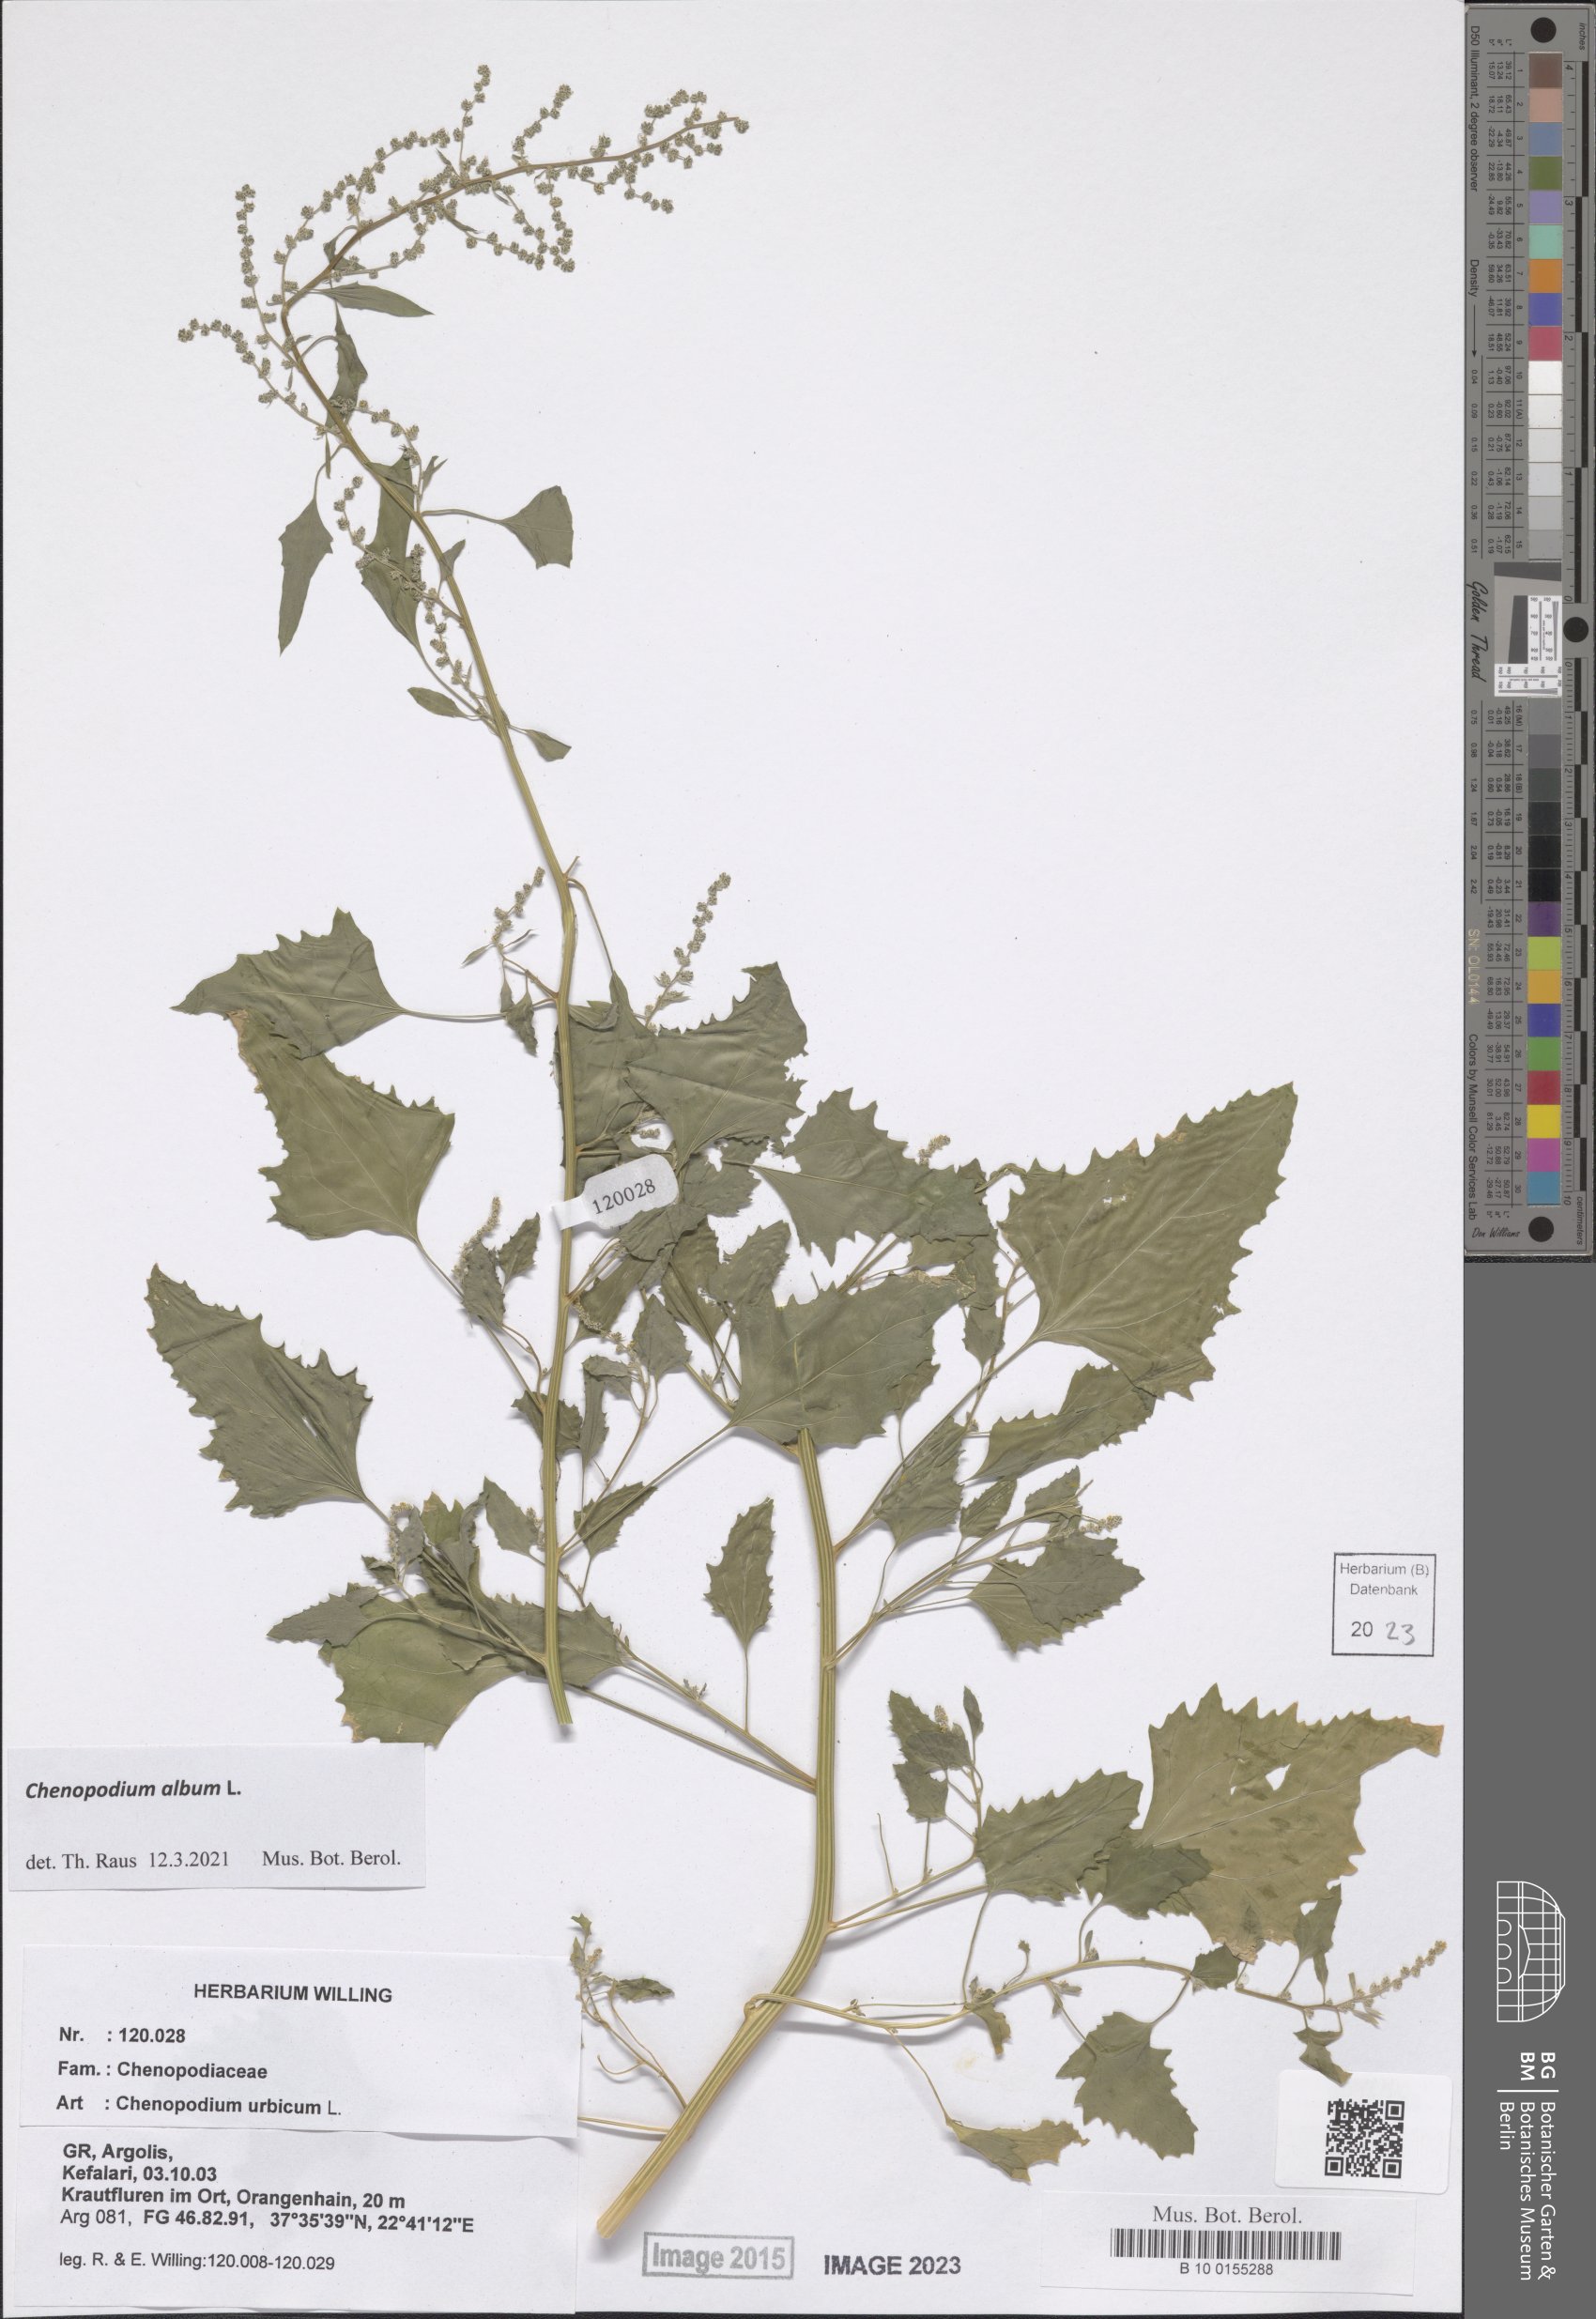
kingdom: Plantae
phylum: Tracheophyta
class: Magnoliopsida
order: Caryophyllales
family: Amaranthaceae
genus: Chenopodium
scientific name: Chenopodium album
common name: Fat-hen
